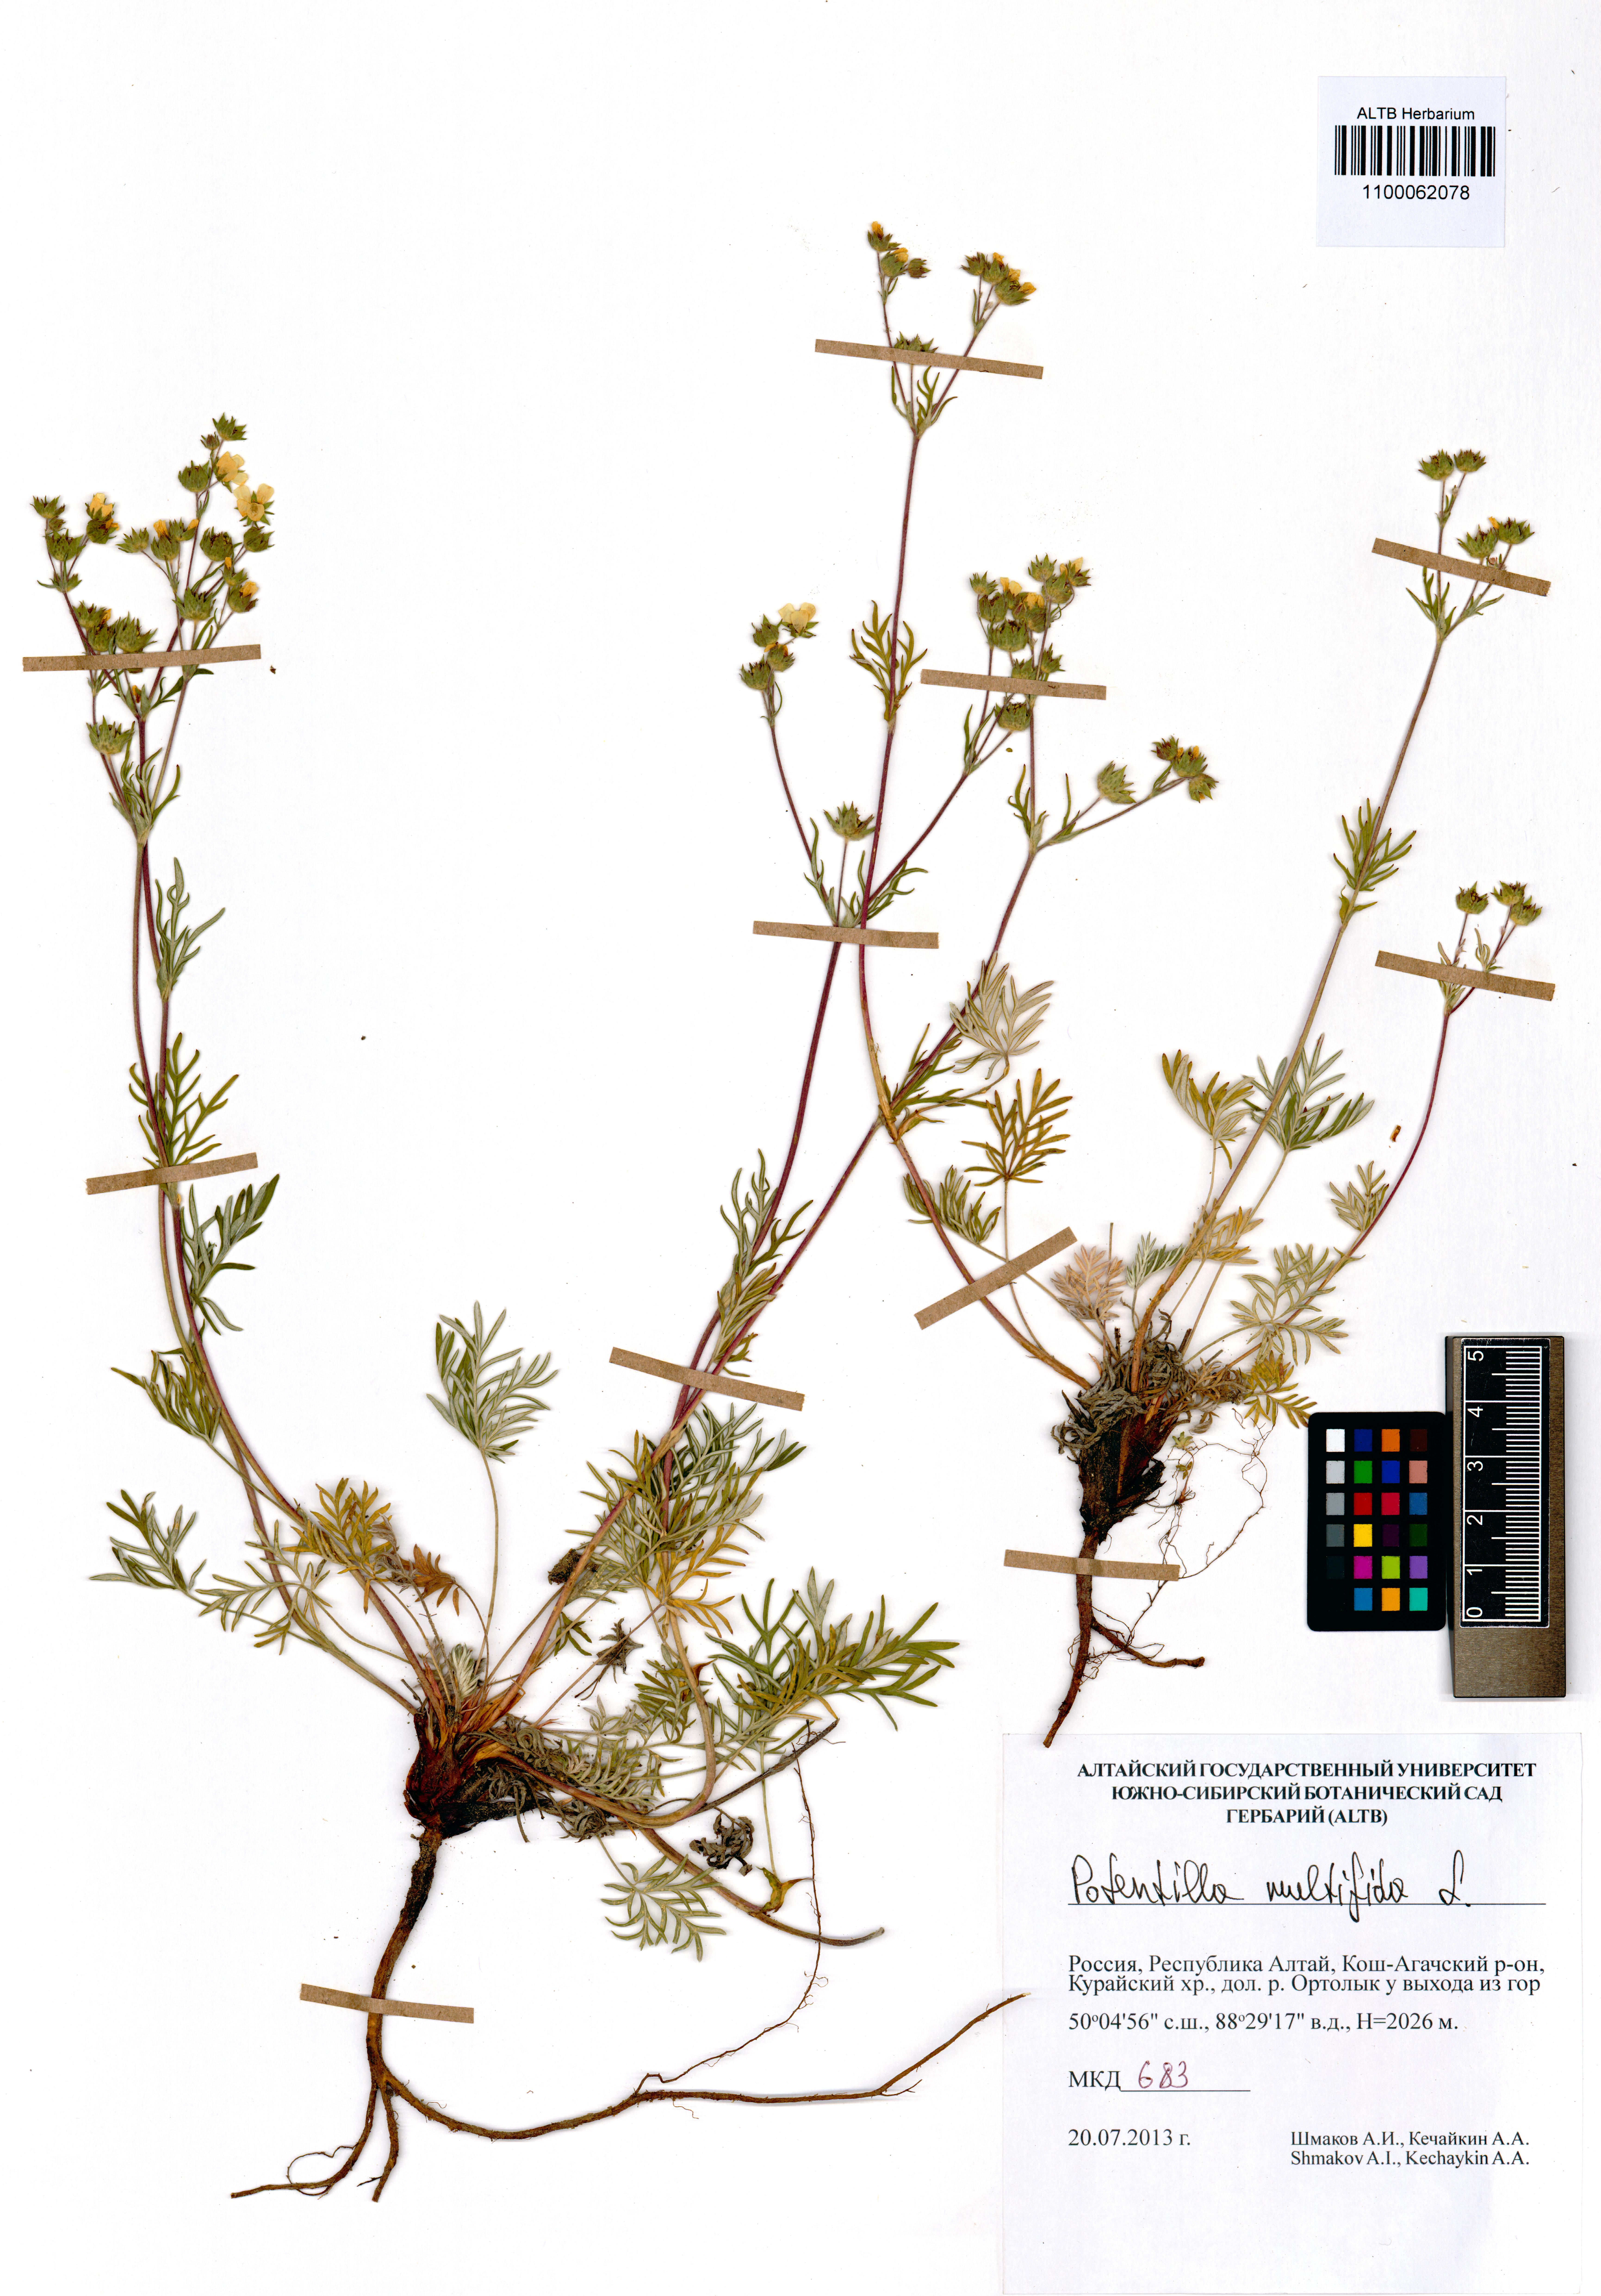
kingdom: Plantae
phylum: Tracheophyta
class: Magnoliopsida
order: Rosales
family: Rosaceae
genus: Potentilla
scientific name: Potentilla multifida
